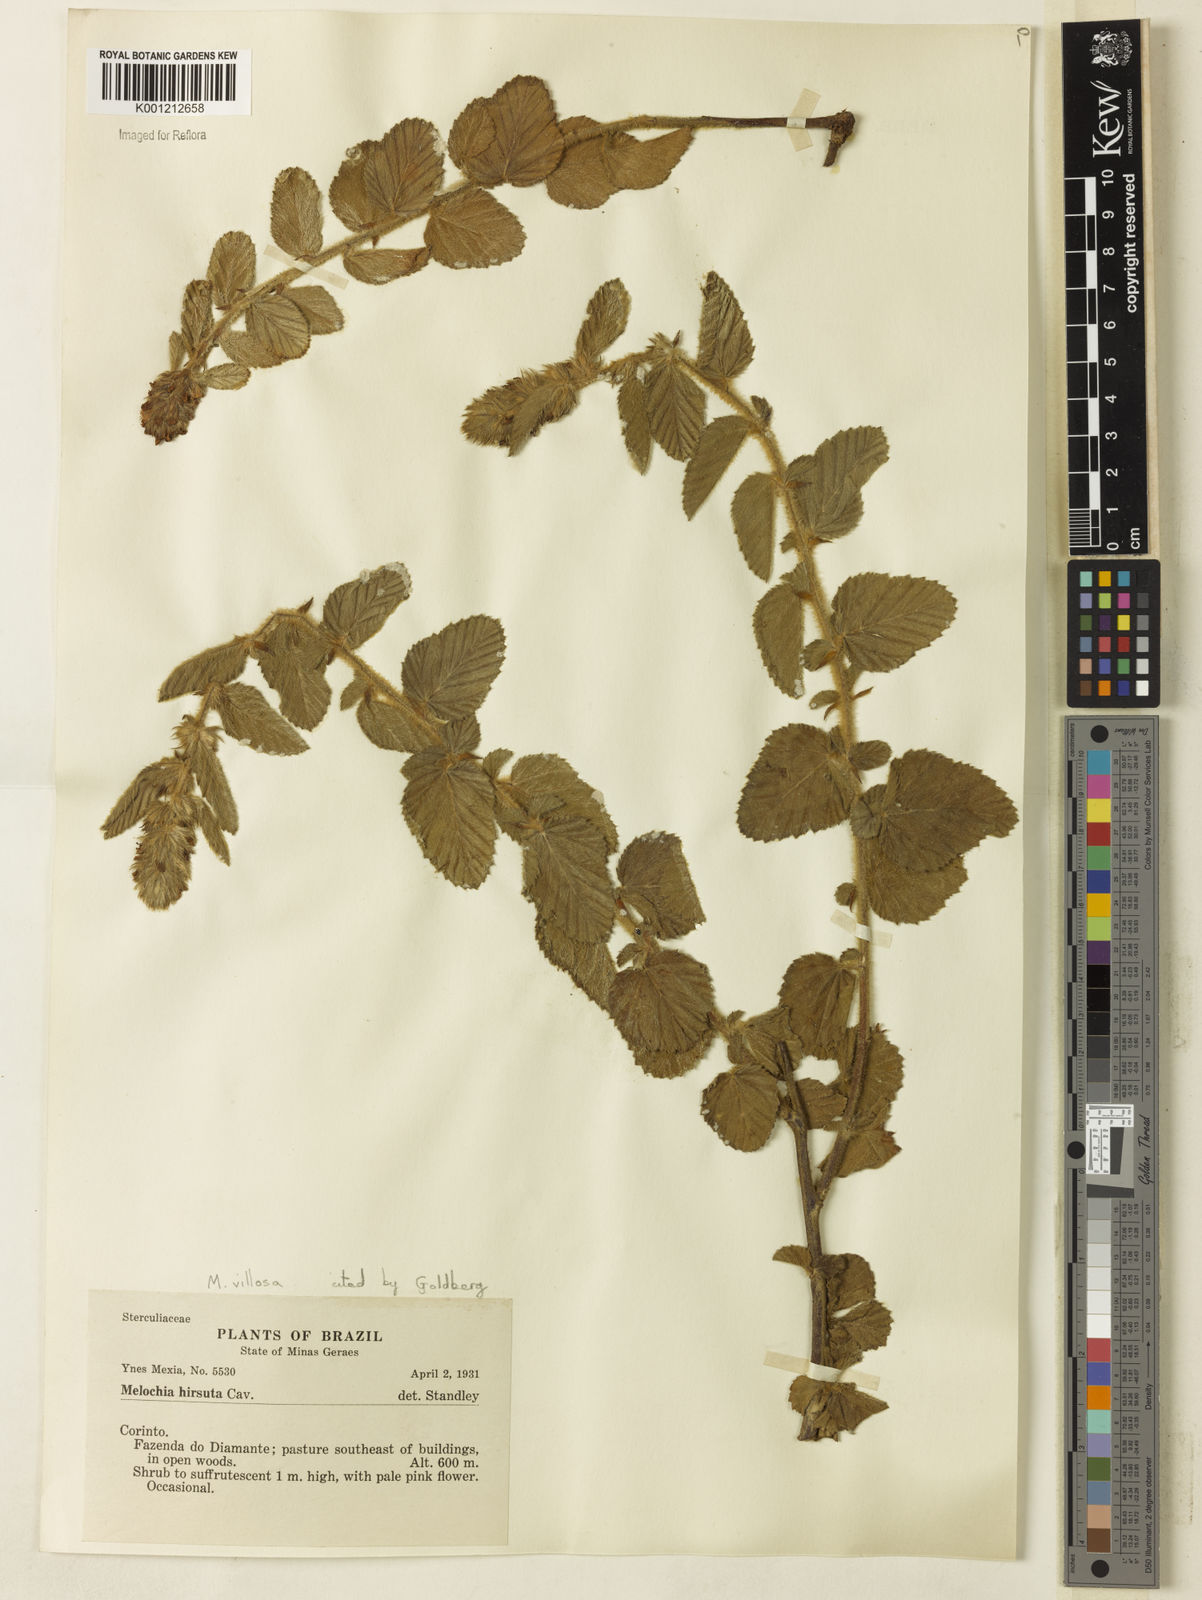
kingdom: Plantae
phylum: Tracheophyta
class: Magnoliopsida
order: Malvales
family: Malvaceae
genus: Melochia
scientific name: Melochia spicata
